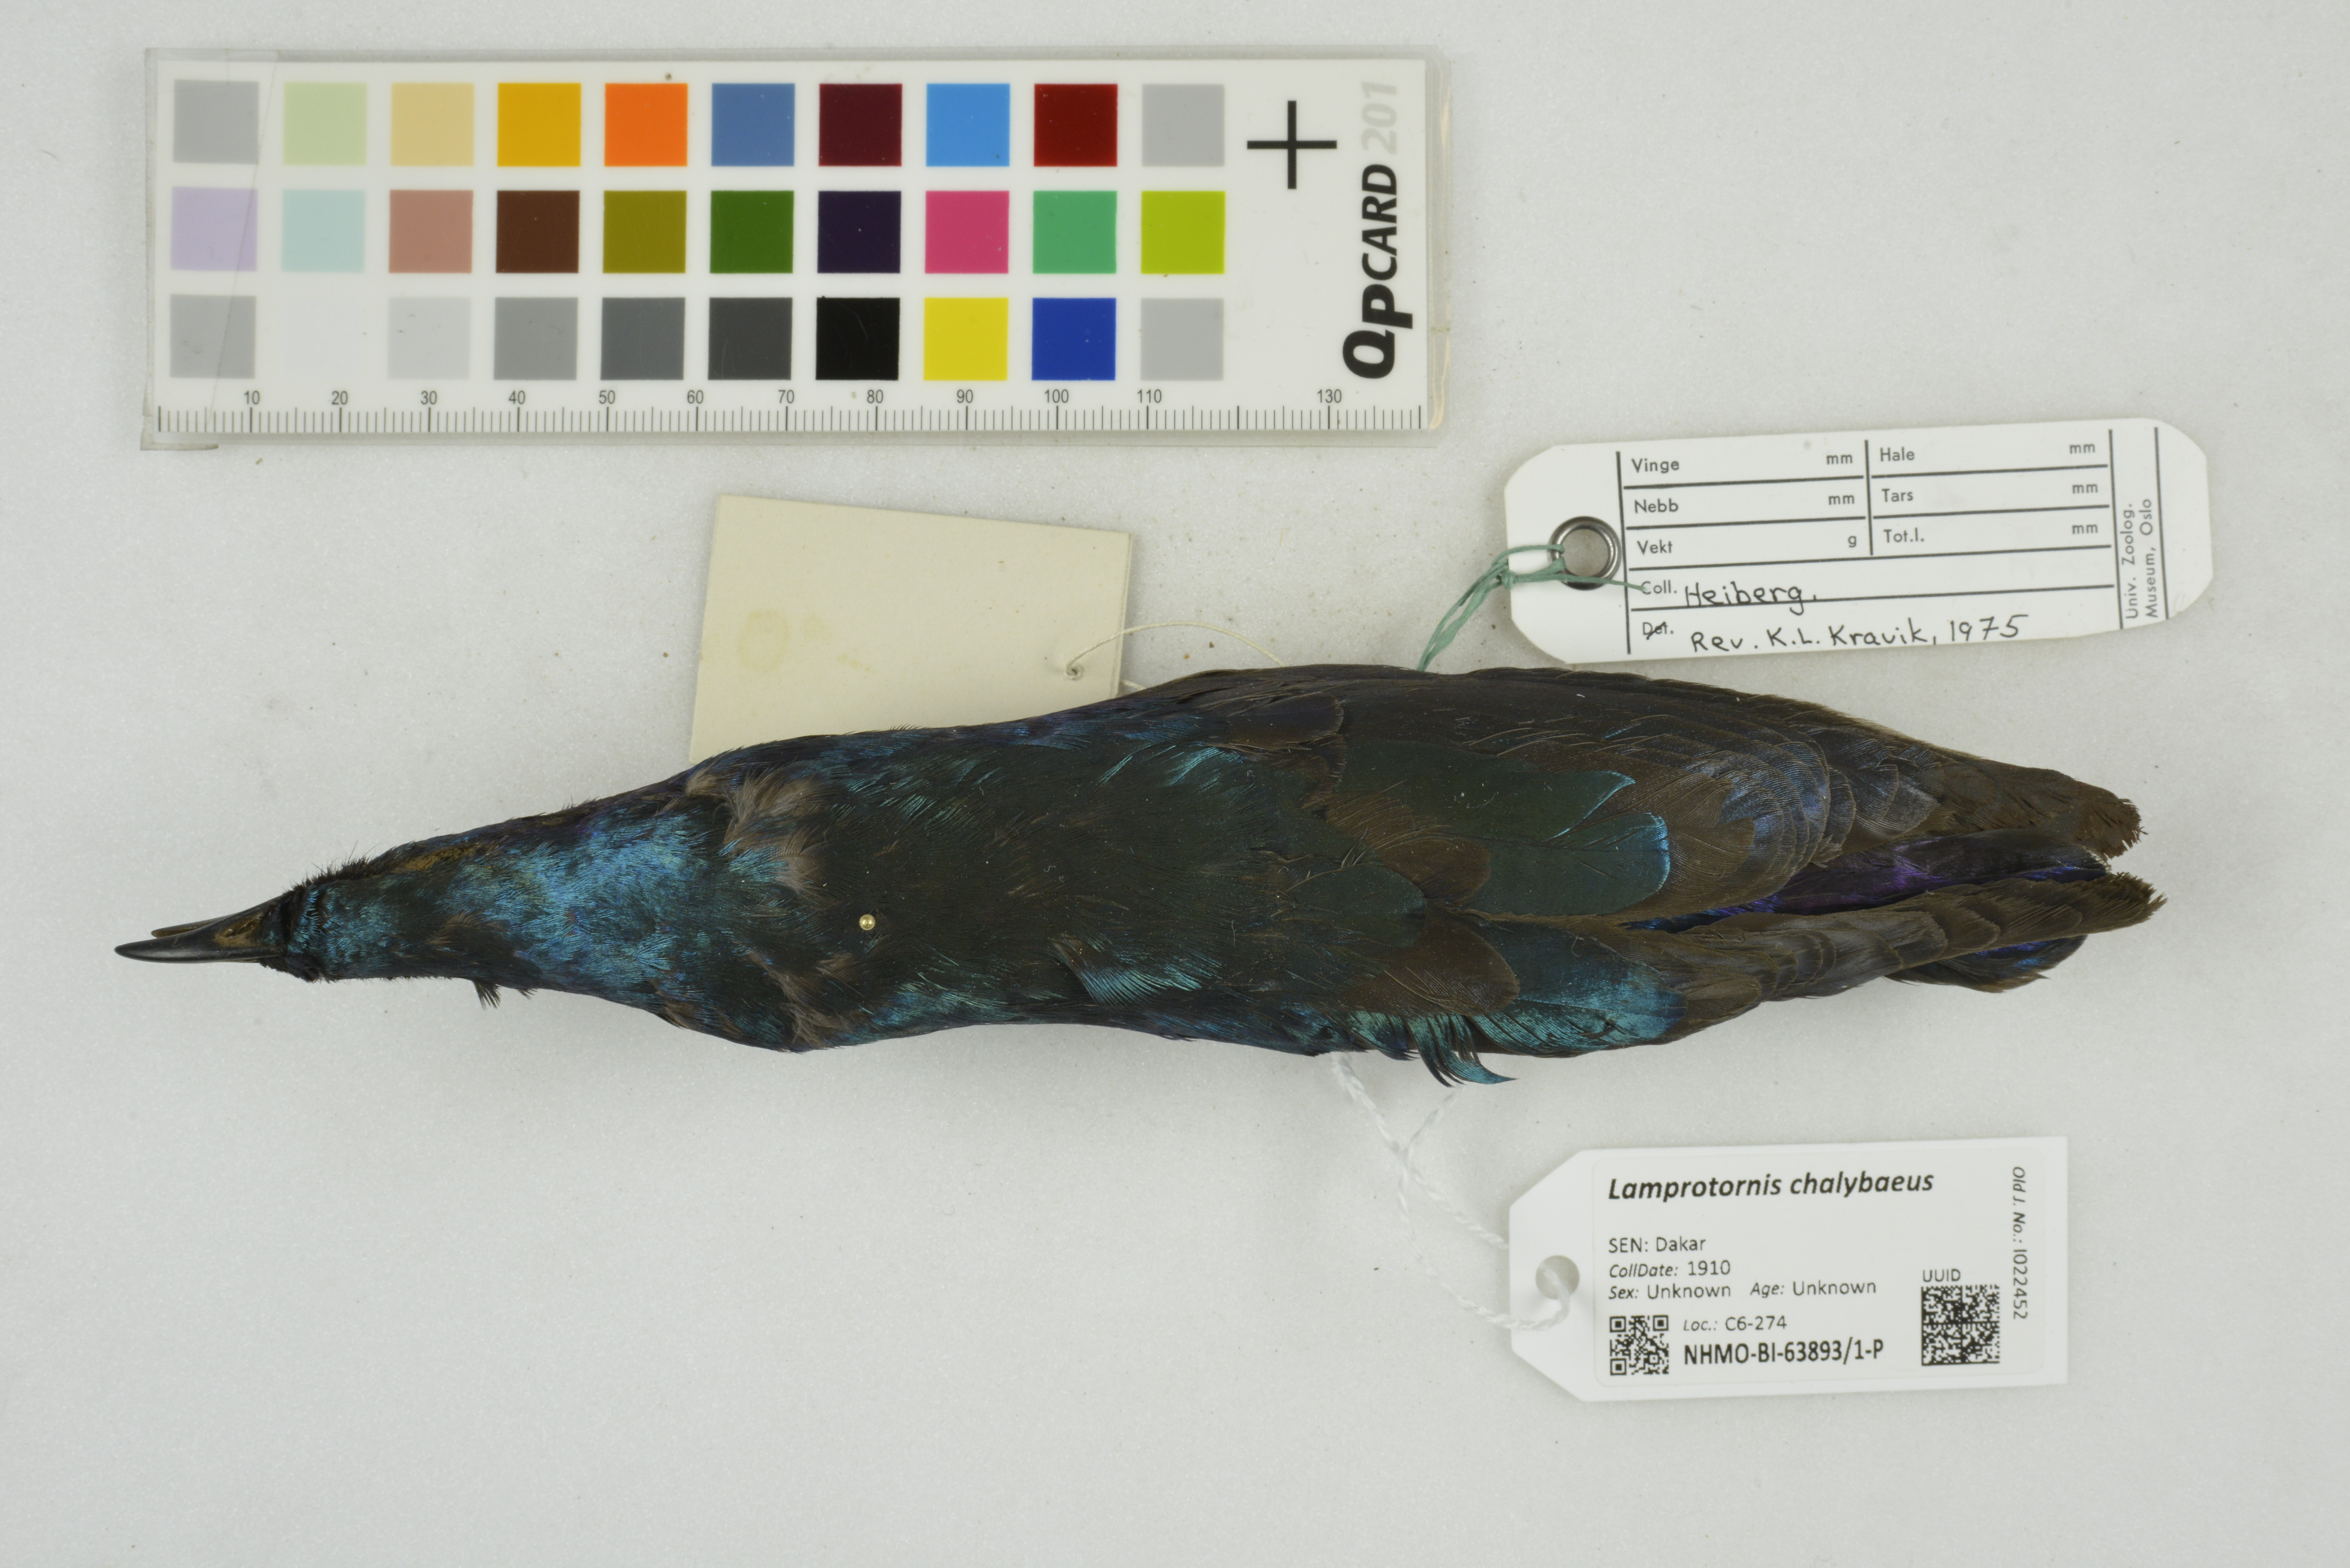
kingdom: Animalia
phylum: Chordata
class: Aves
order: Passeriformes
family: Sturnidae
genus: Lamprotornis
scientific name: Lamprotornis chalybaeus
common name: Greater blue-eared starling
